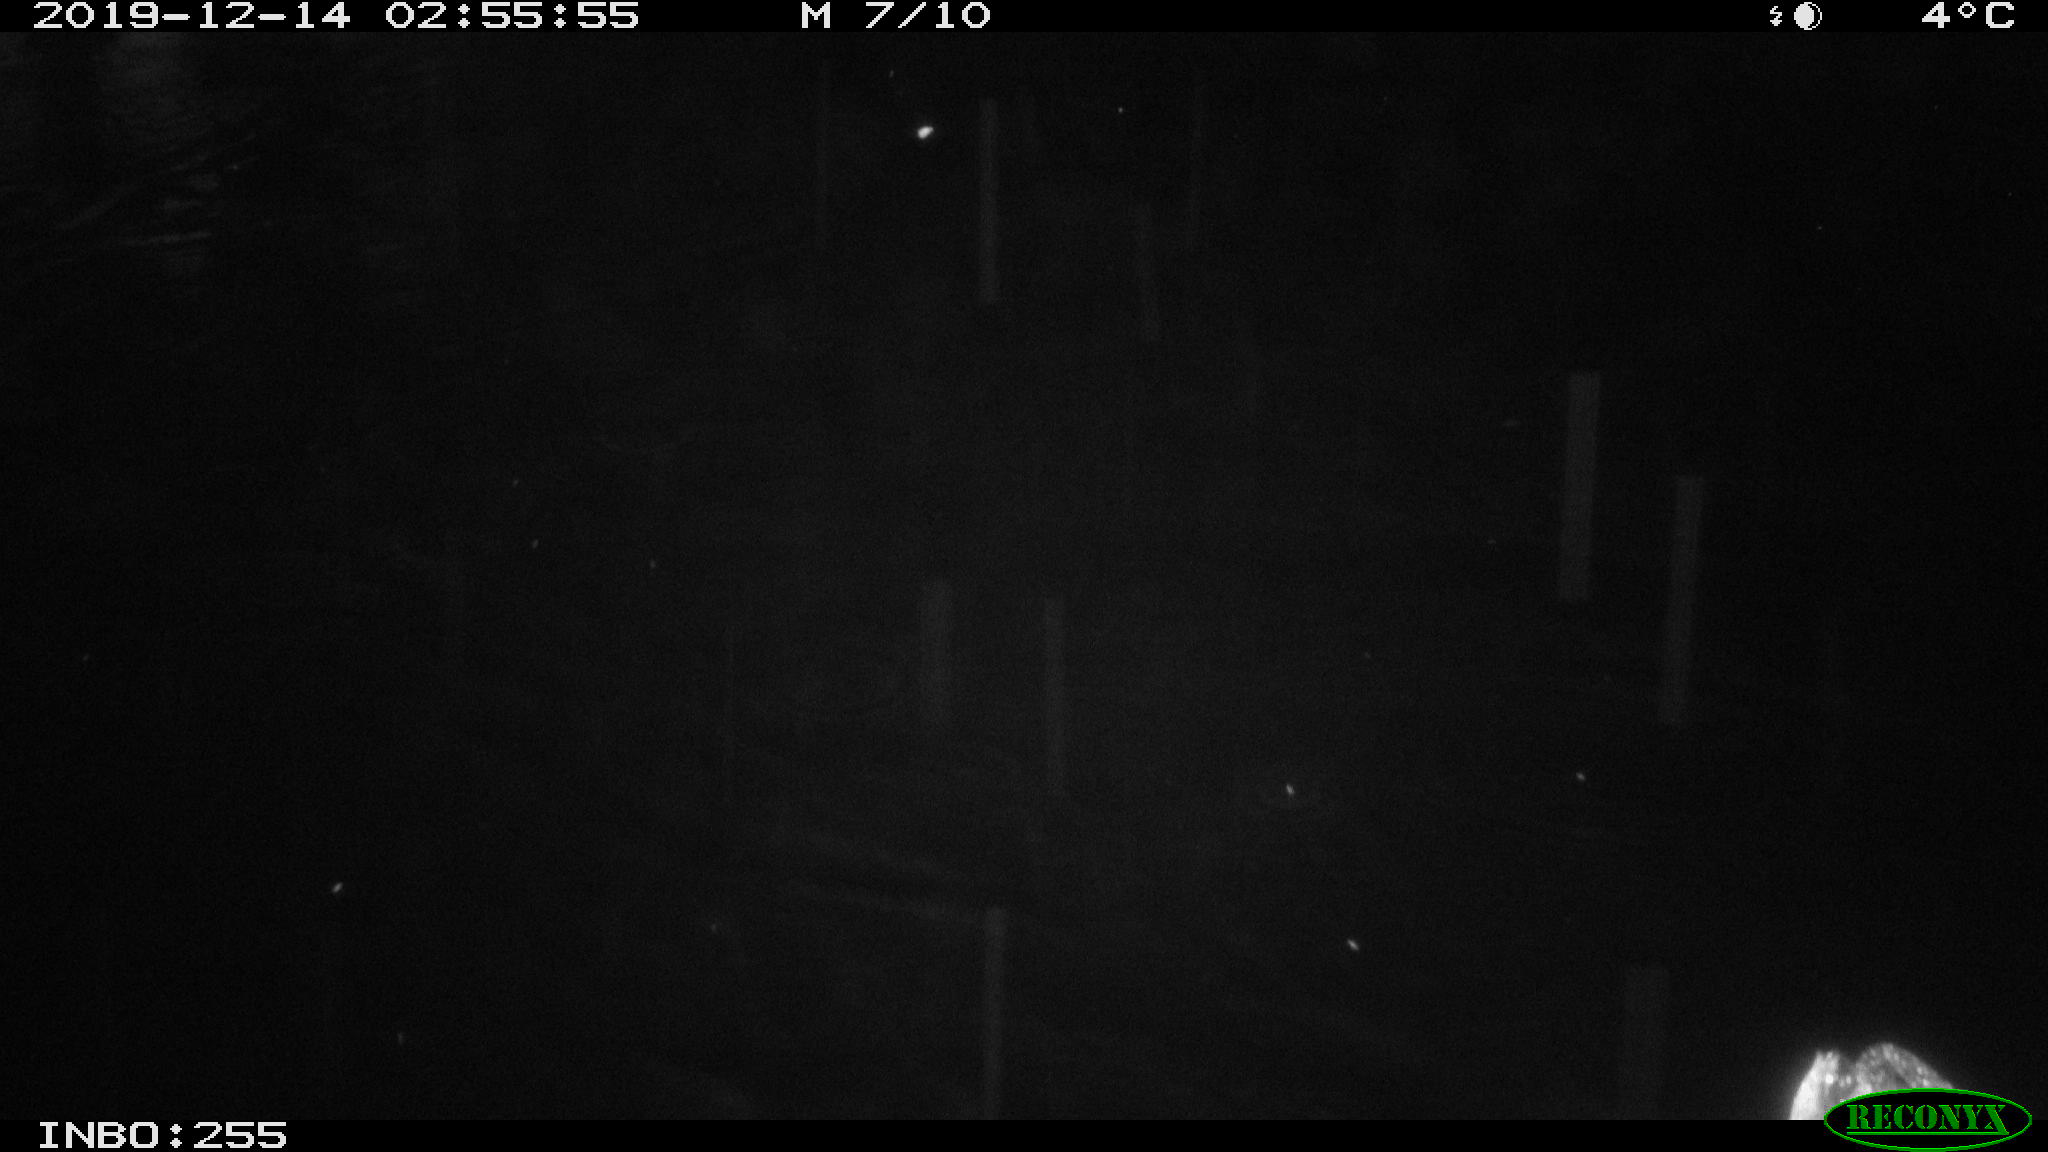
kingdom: Animalia
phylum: Chordata
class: Aves
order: Anseriformes
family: Anatidae
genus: Anas
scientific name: Anas platyrhynchos
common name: Mallard
